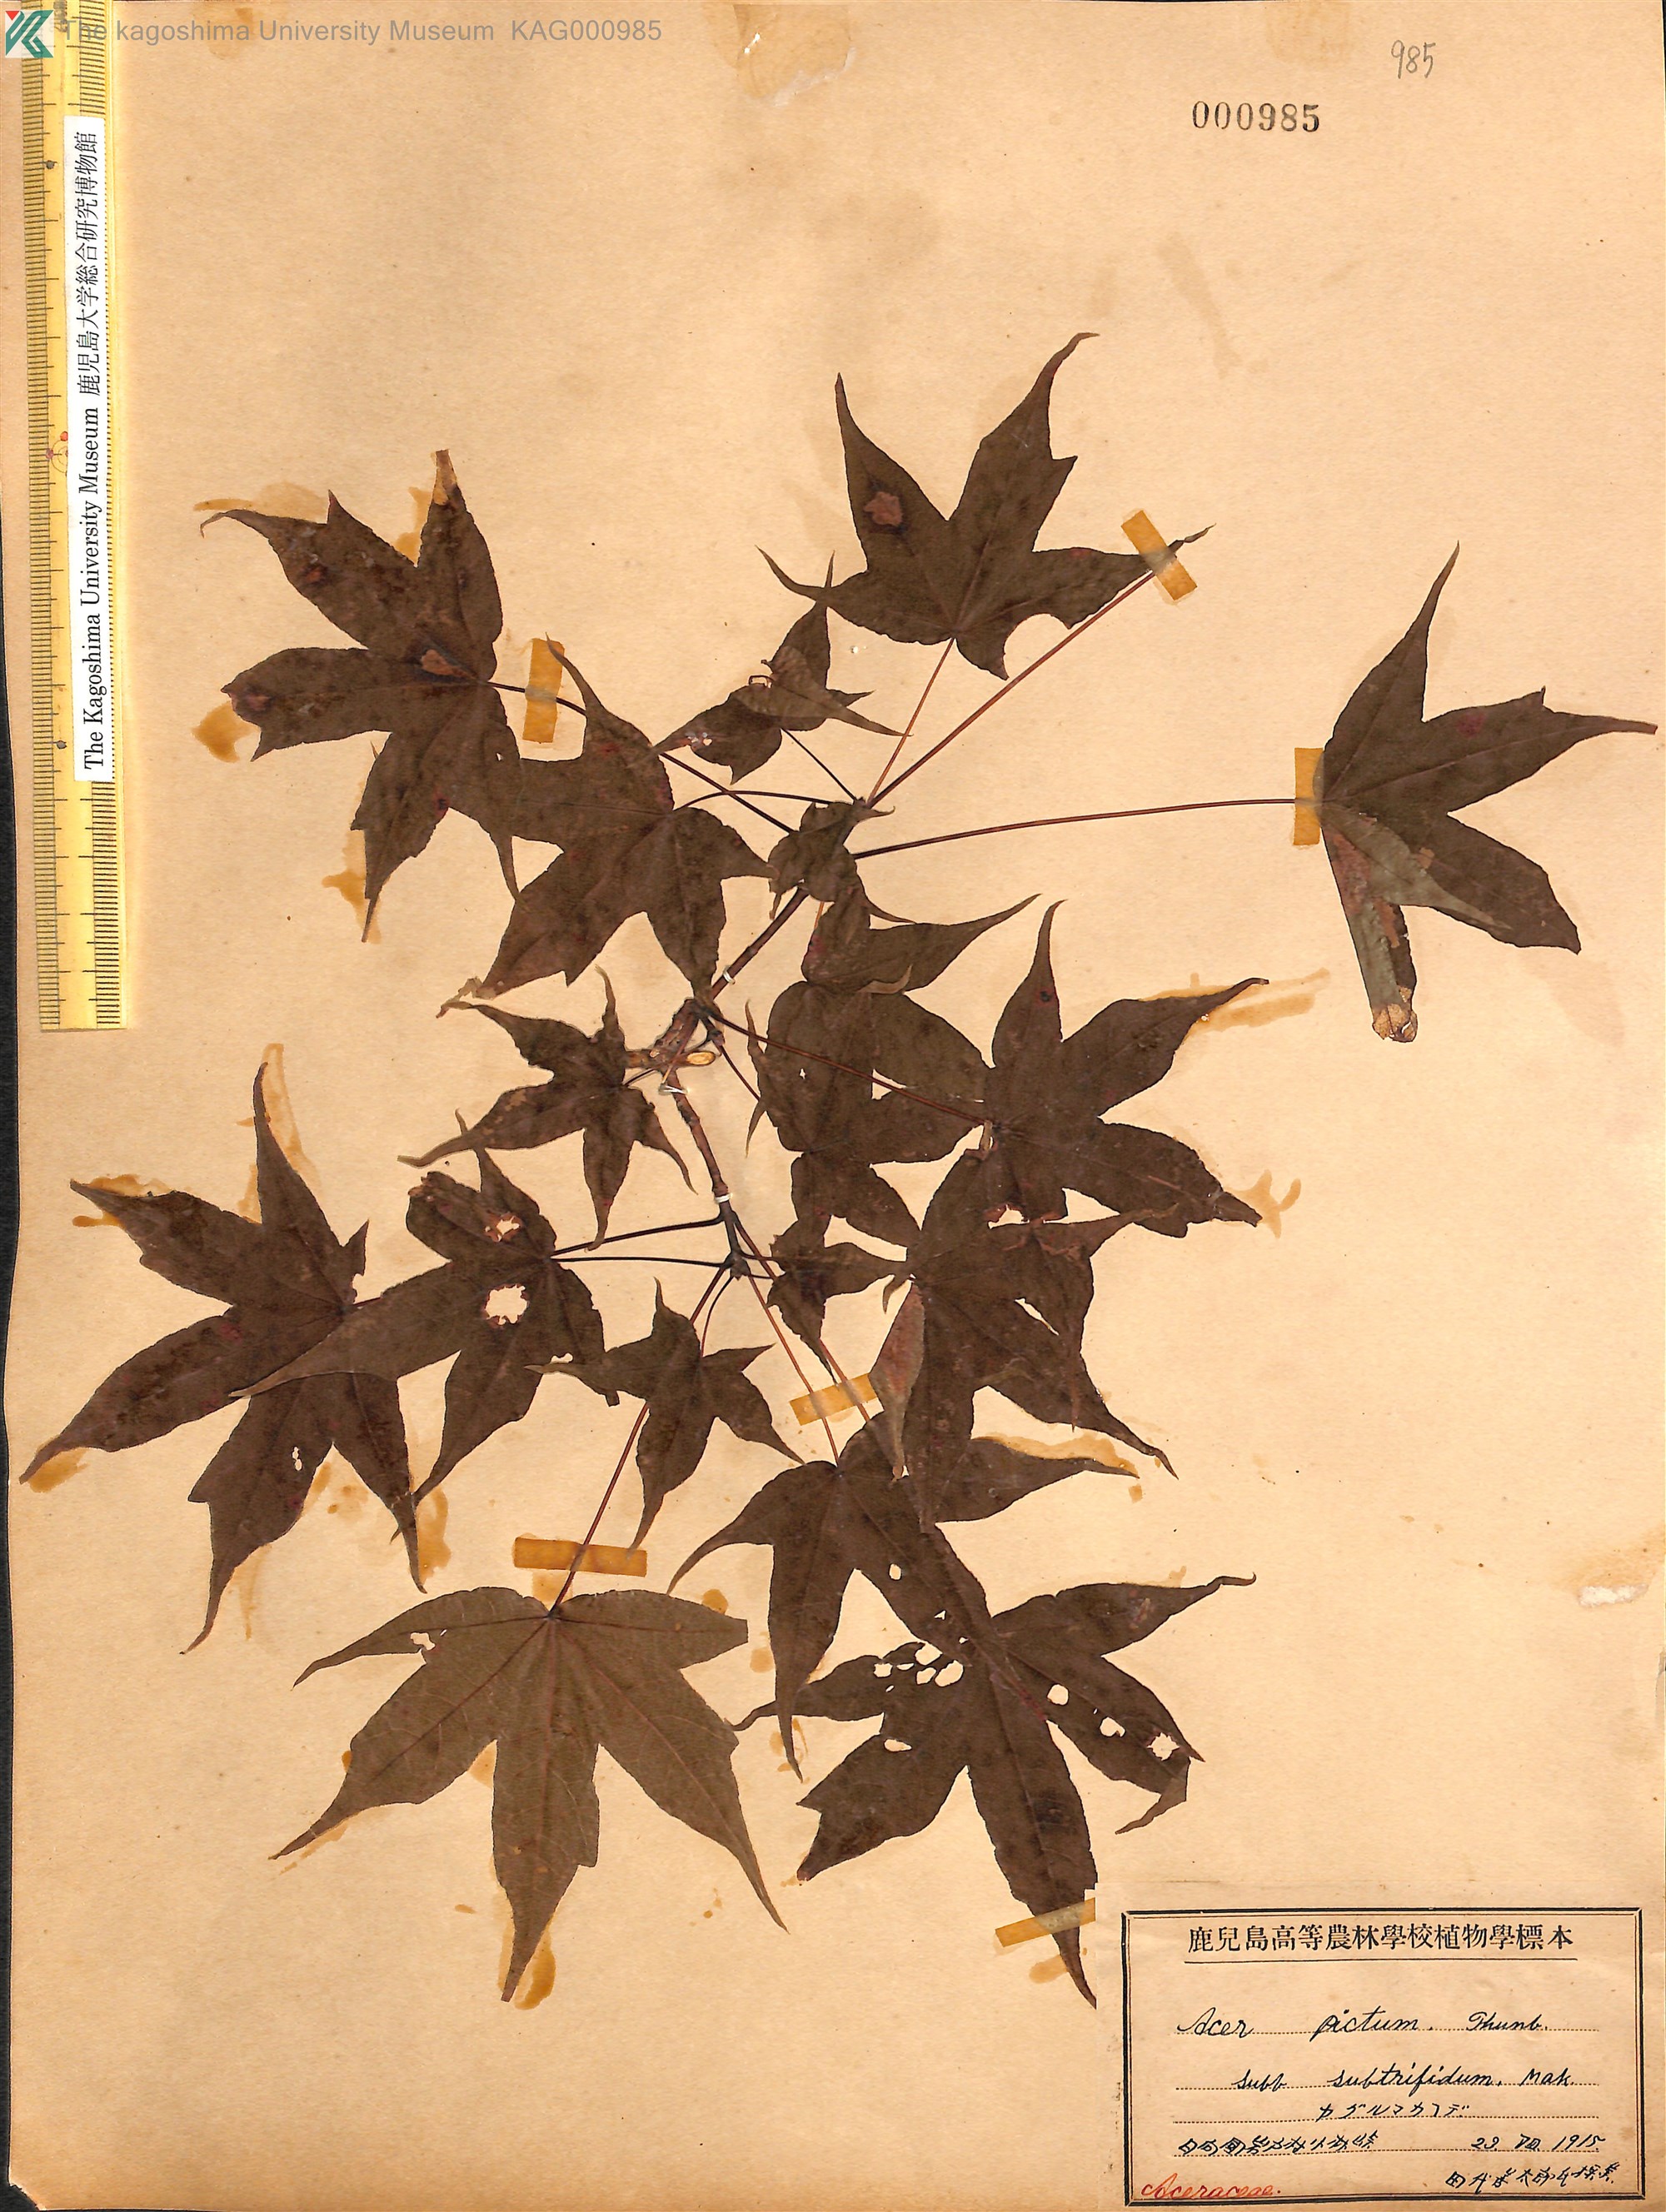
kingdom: Plantae
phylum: Tracheophyta
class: Magnoliopsida
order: Sapindales
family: Sapindaceae
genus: Acer
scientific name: Acer pictum
